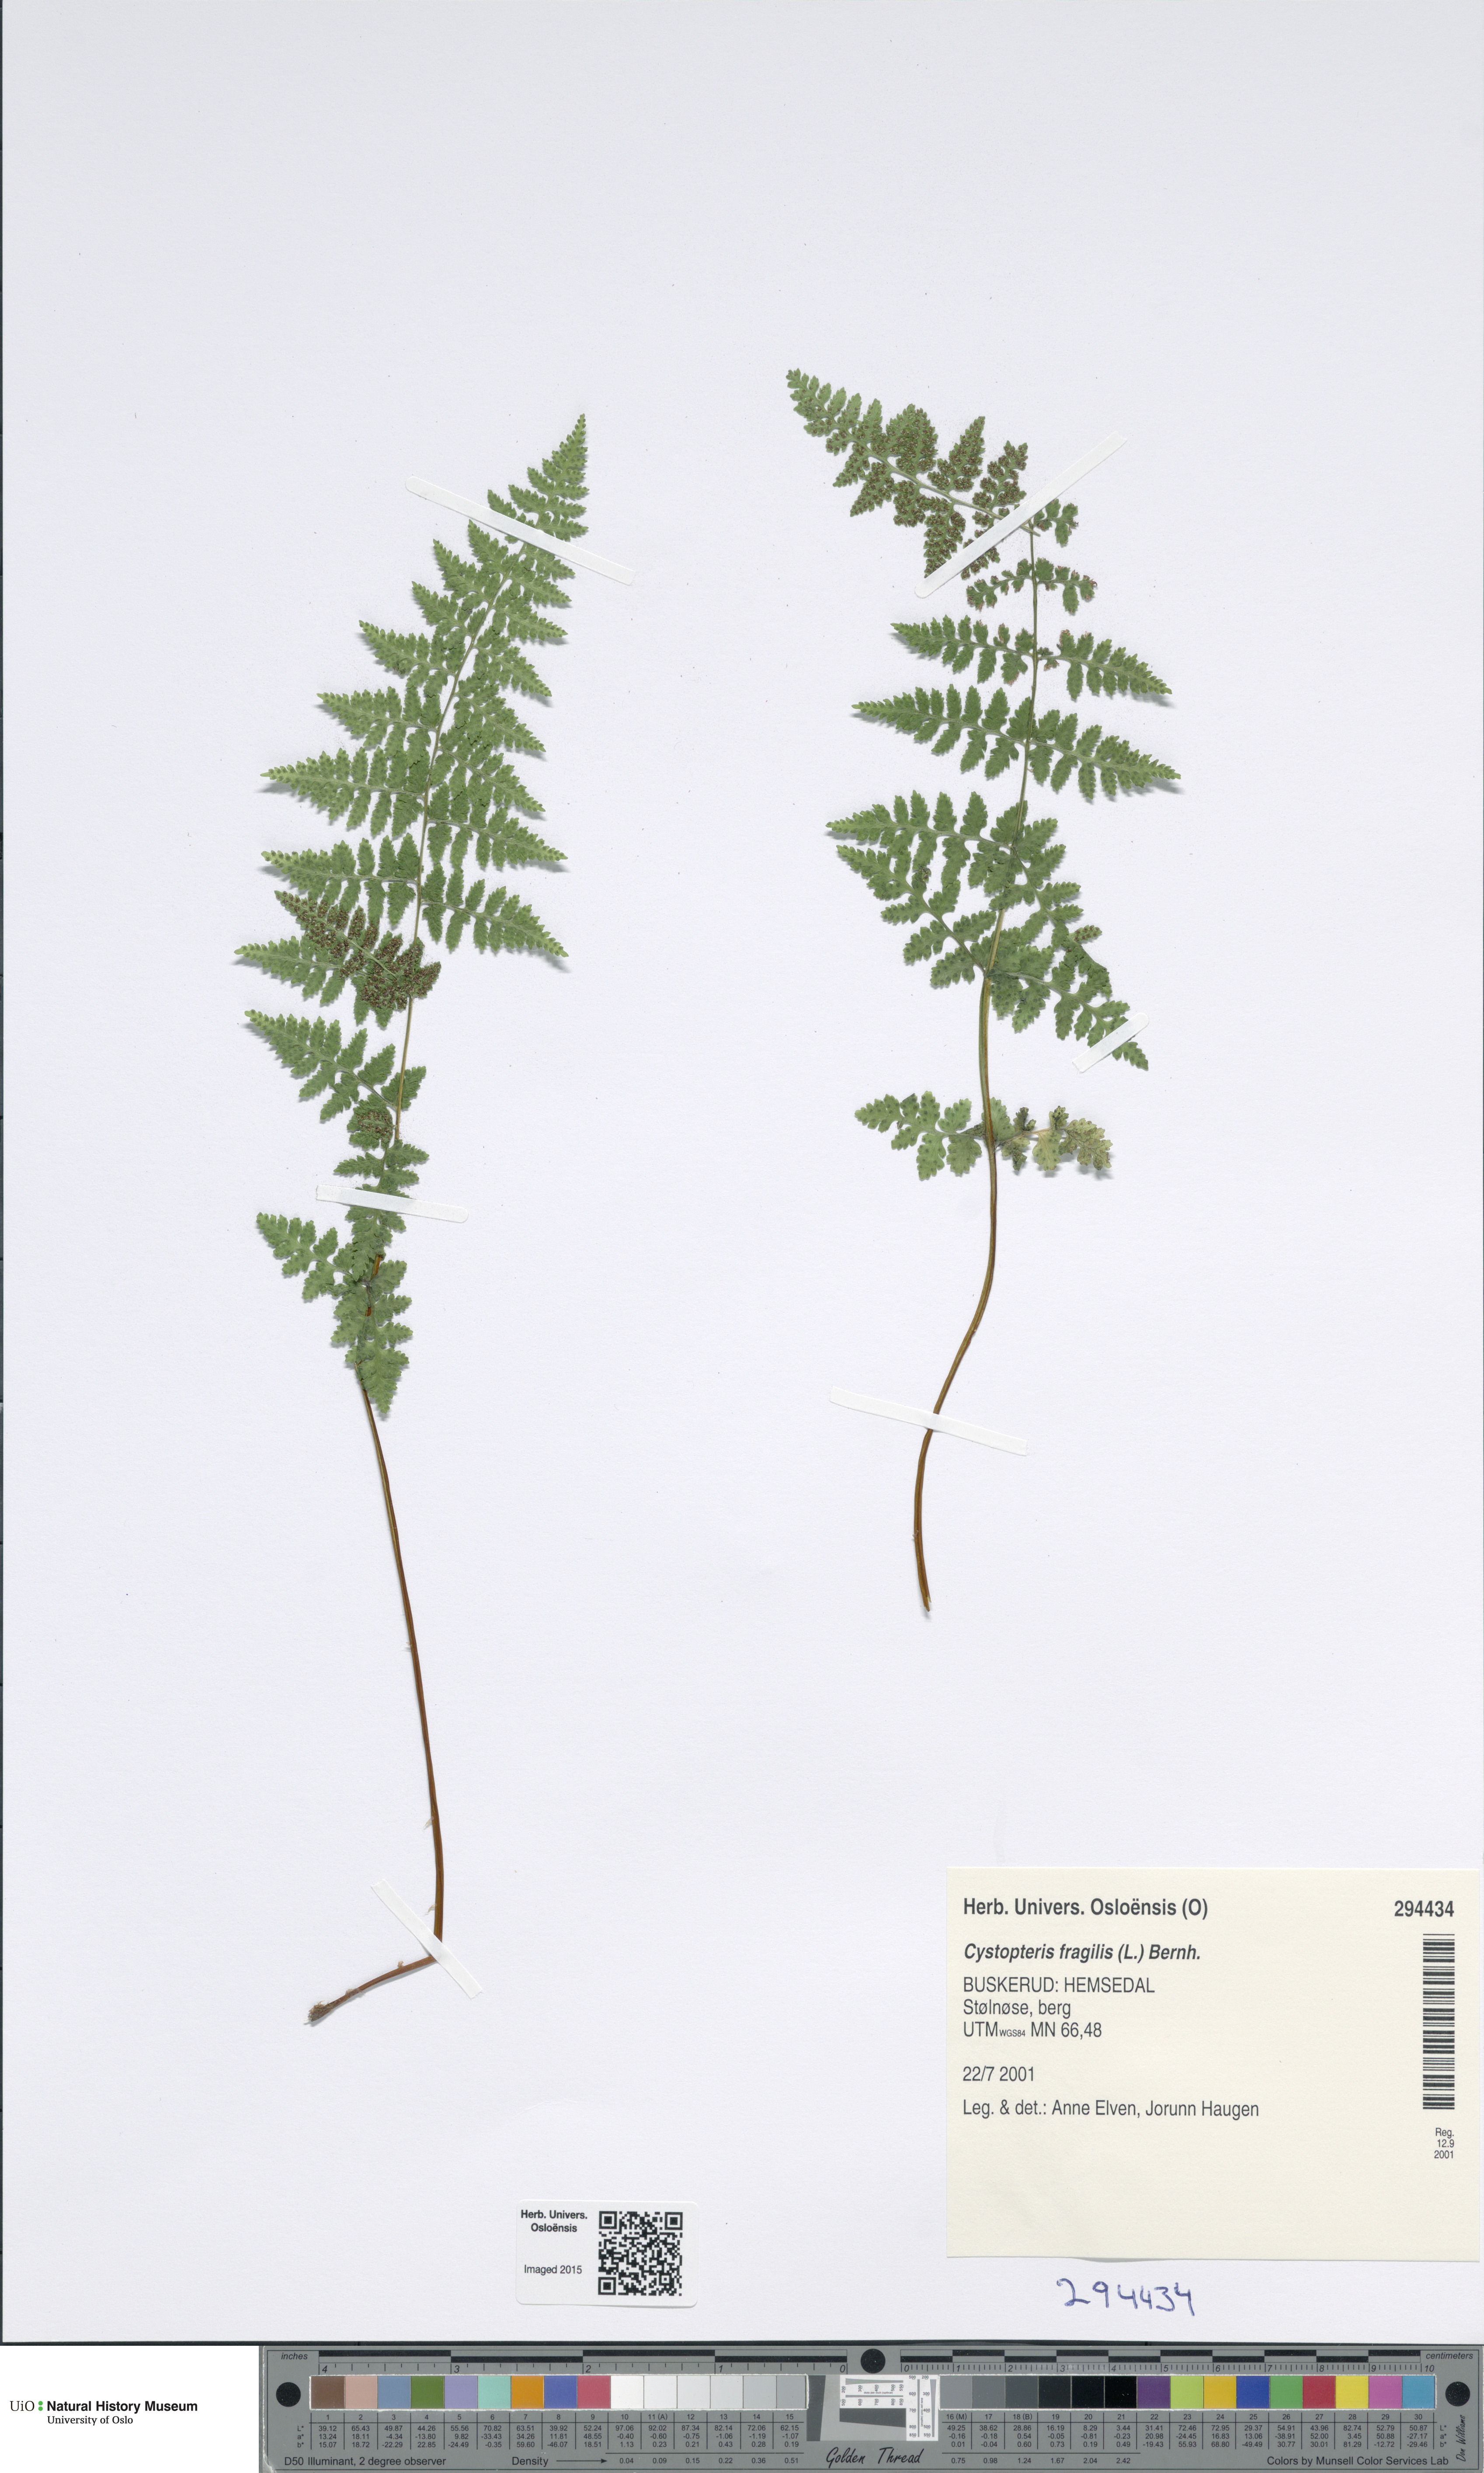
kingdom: Plantae
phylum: Tracheophyta
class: Polypodiopsida
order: Polypodiales
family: Cystopteridaceae
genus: Cystopteris
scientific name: Cystopteris fragilis
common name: Brittle bladder fern
